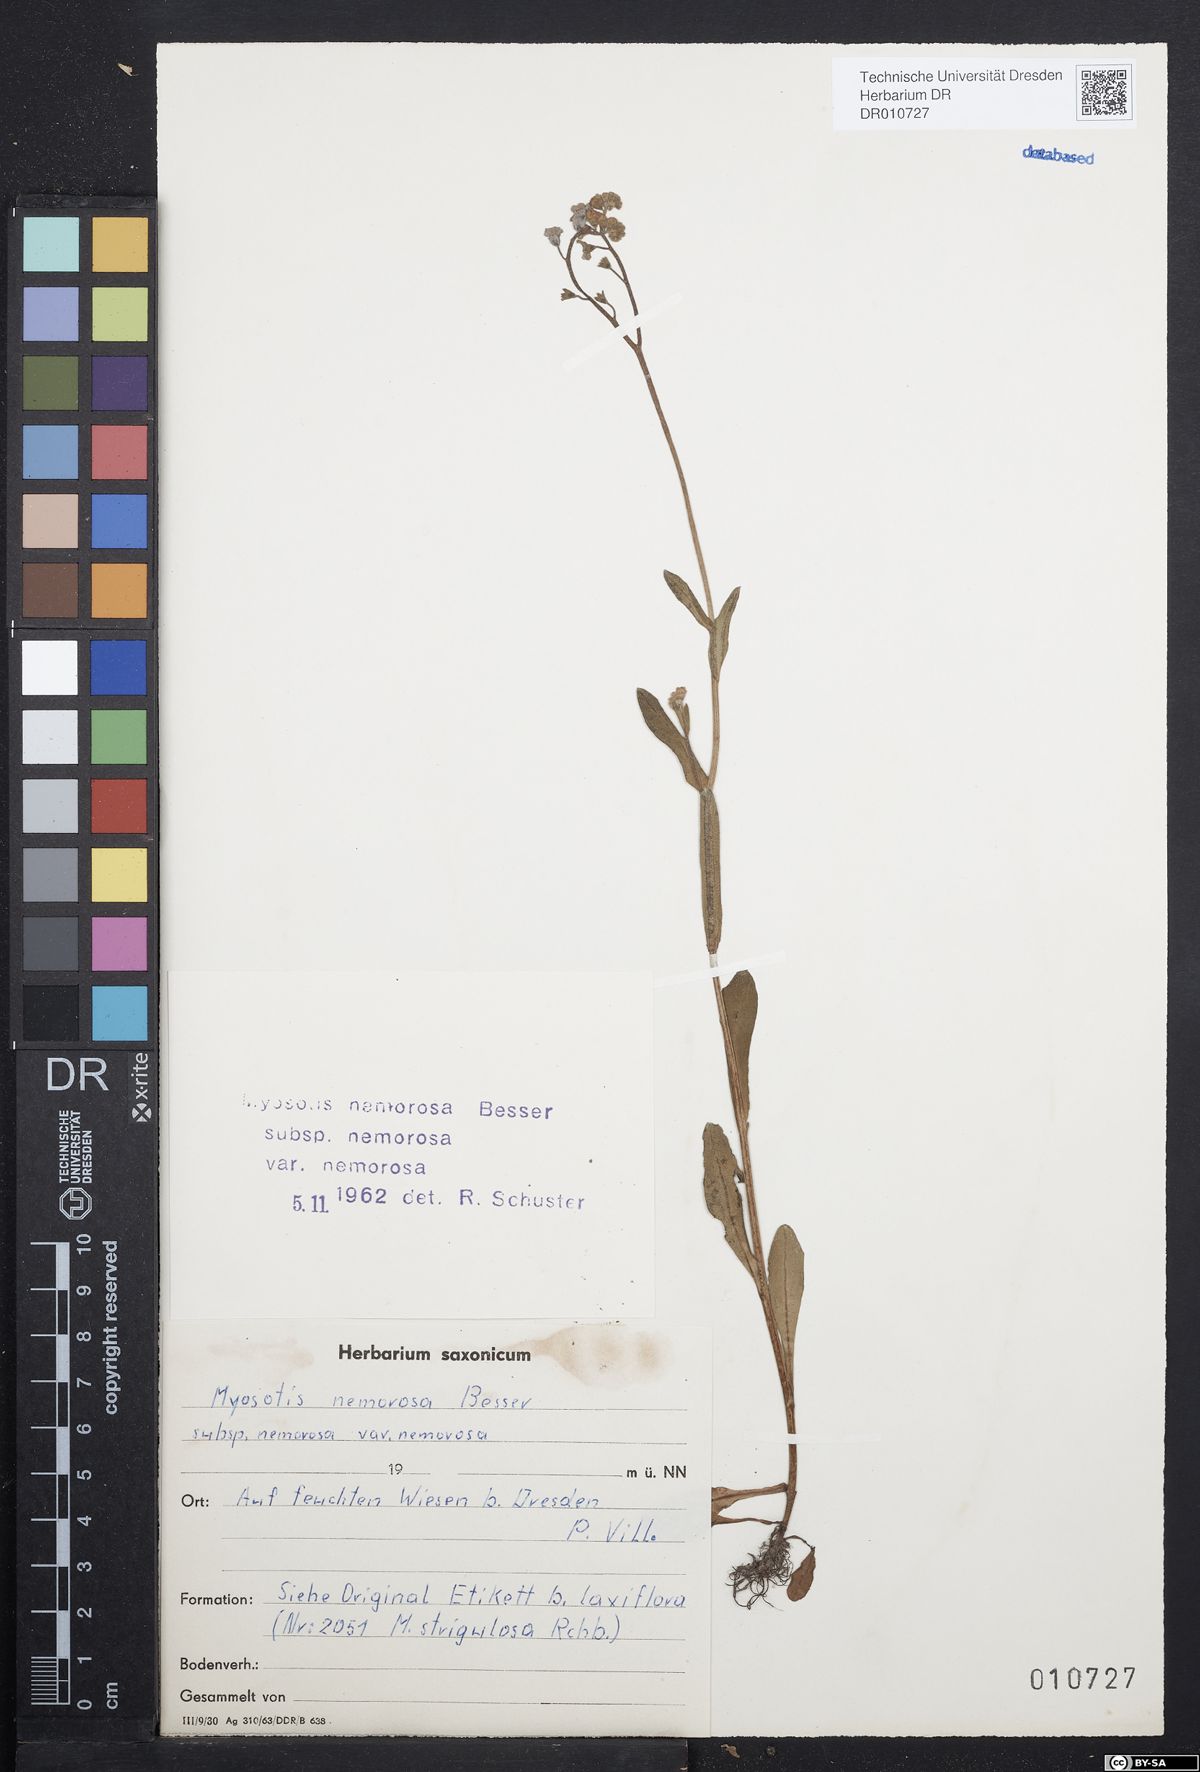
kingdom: Plantae
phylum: Tracheophyta
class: Magnoliopsida
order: Boraginales
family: Boraginaceae
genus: Myosotis
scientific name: Myosotis nemorosa
